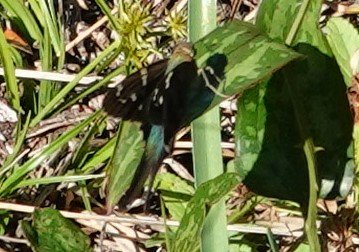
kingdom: Animalia
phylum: Arthropoda
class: Insecta
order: Lepidoptera
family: Hesperiidae
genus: Urbanus
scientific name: Urbanus proteus
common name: Long-tailed Skipper
